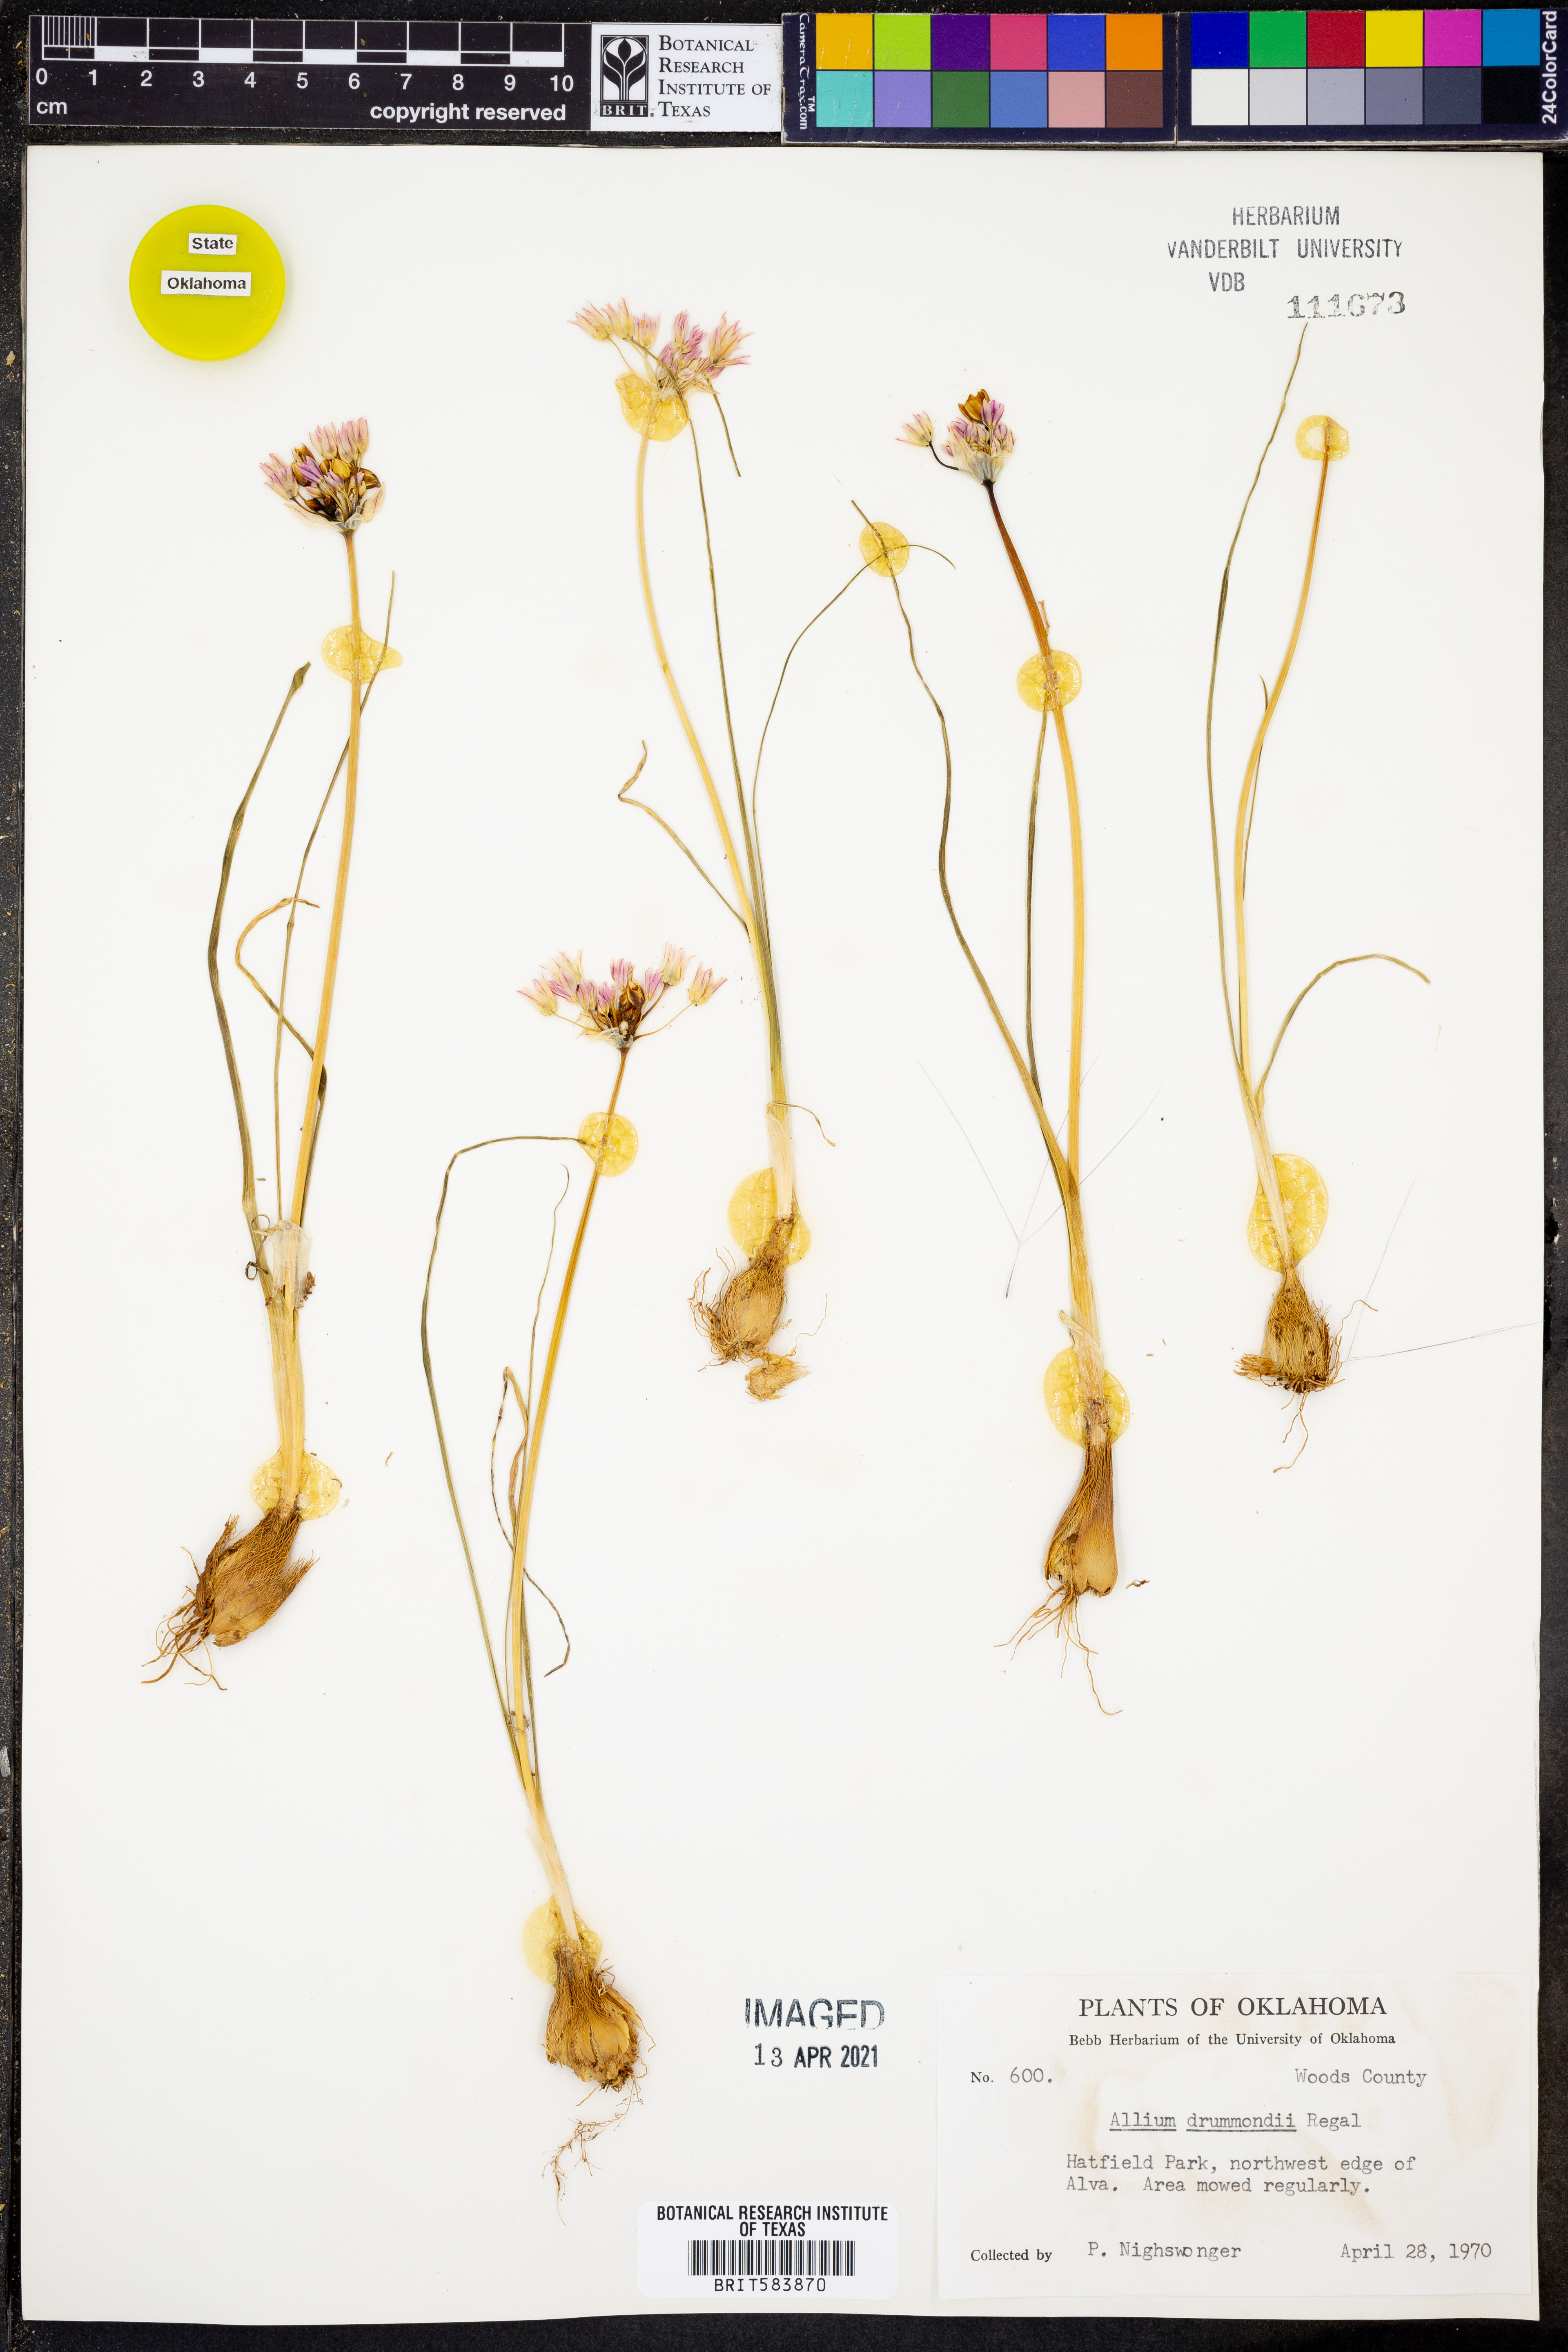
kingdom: Plantae
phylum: Tracheophyta
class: Liliopsida
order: Asparagales
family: Amaryllidaceae
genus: Allium
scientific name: Allium drummondii
